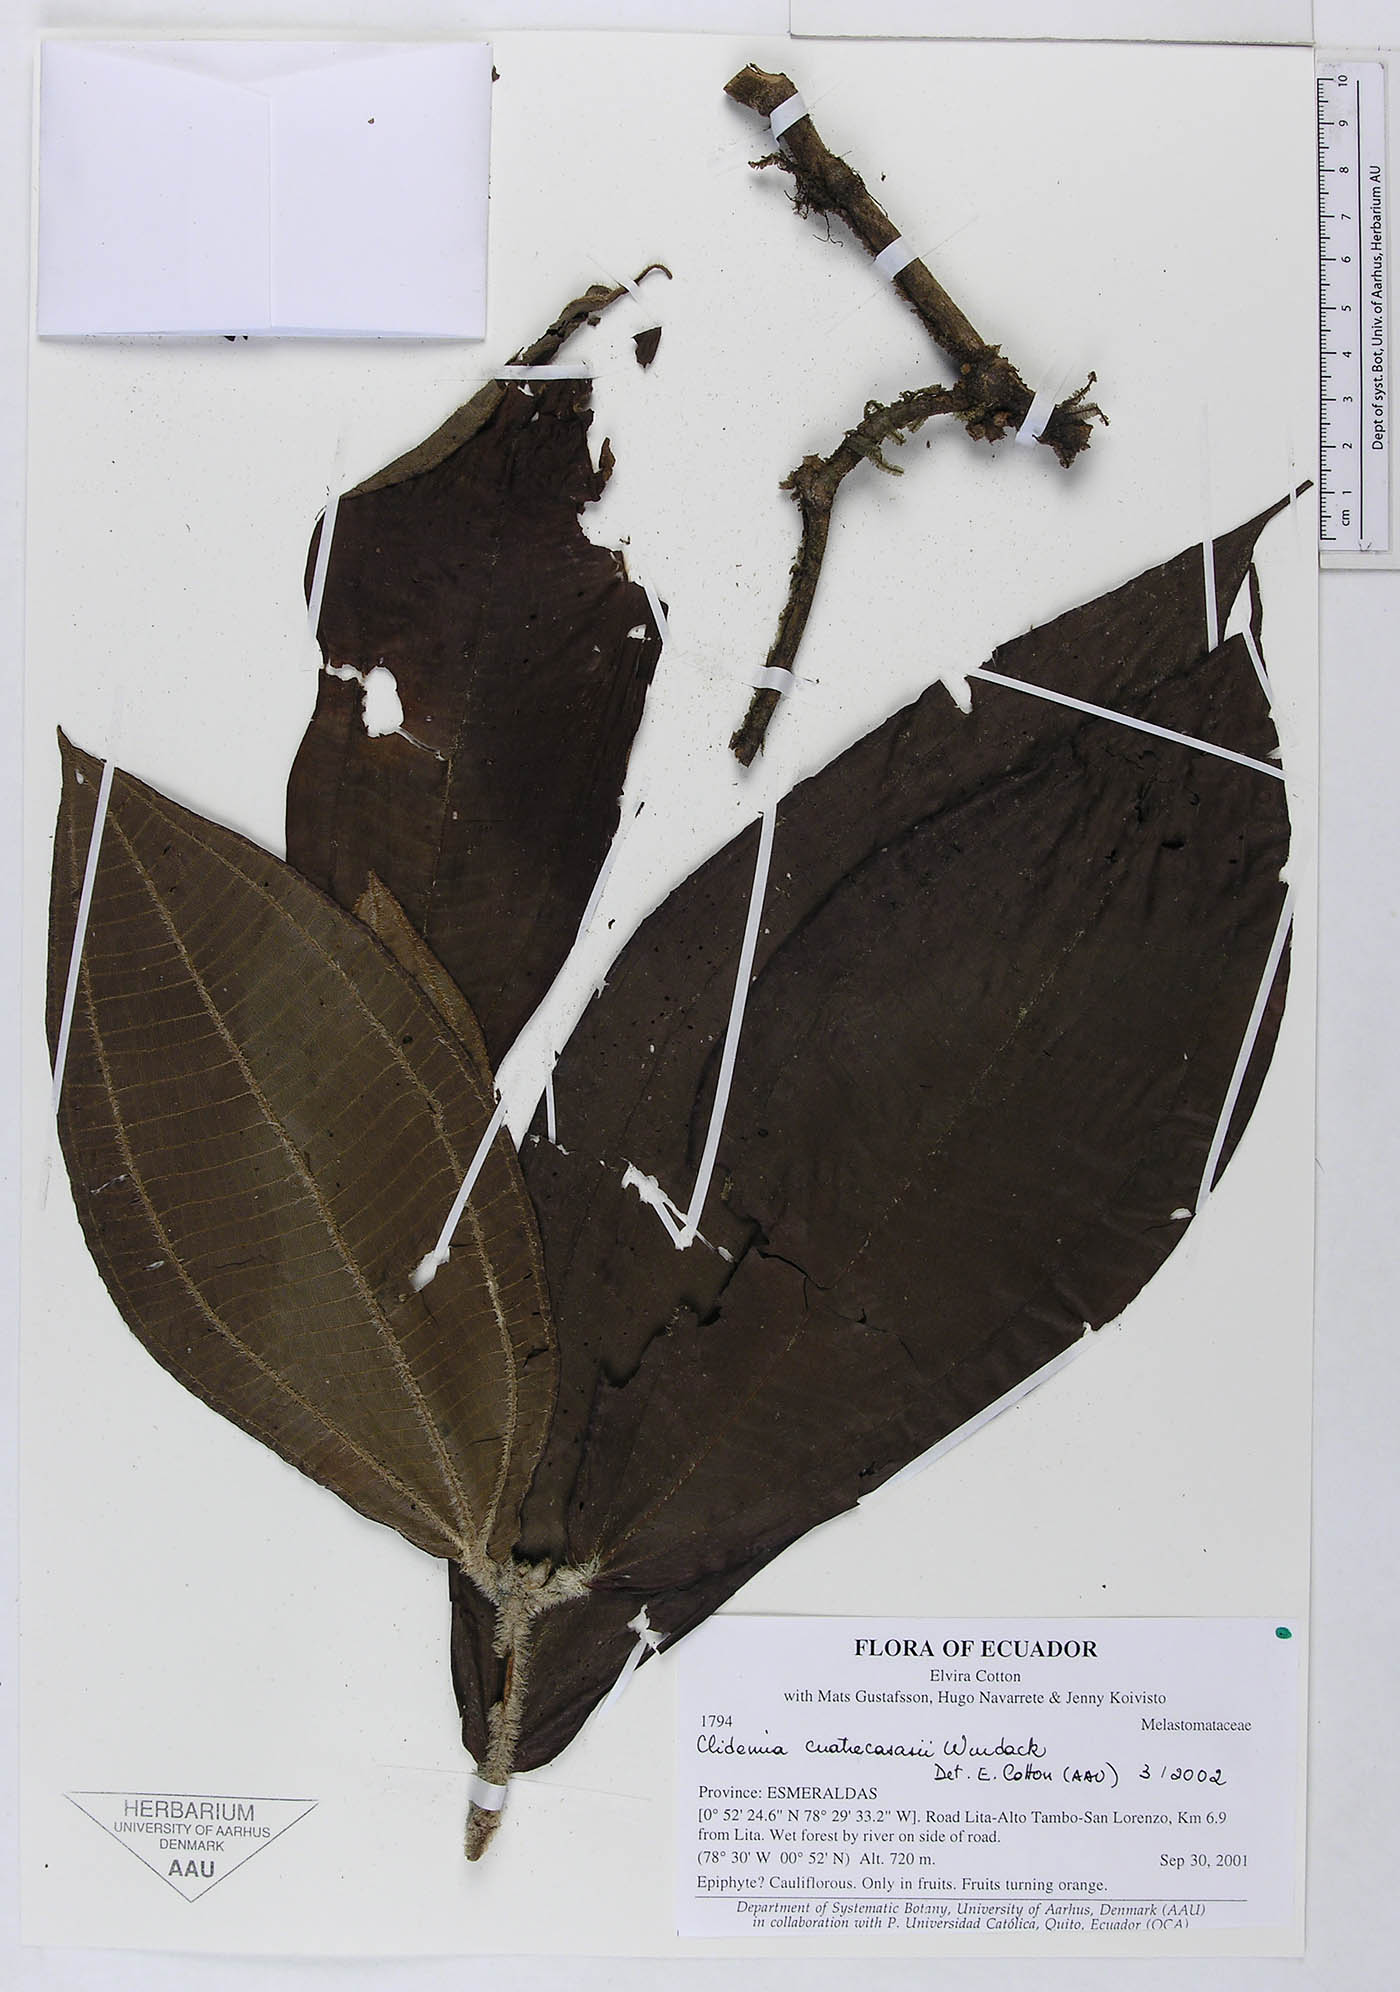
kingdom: Plantae
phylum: Tracheophyta
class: Magnoliopsida
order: Myrtales
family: Melastomataceae
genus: Miconia
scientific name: Miconia quadridomius
